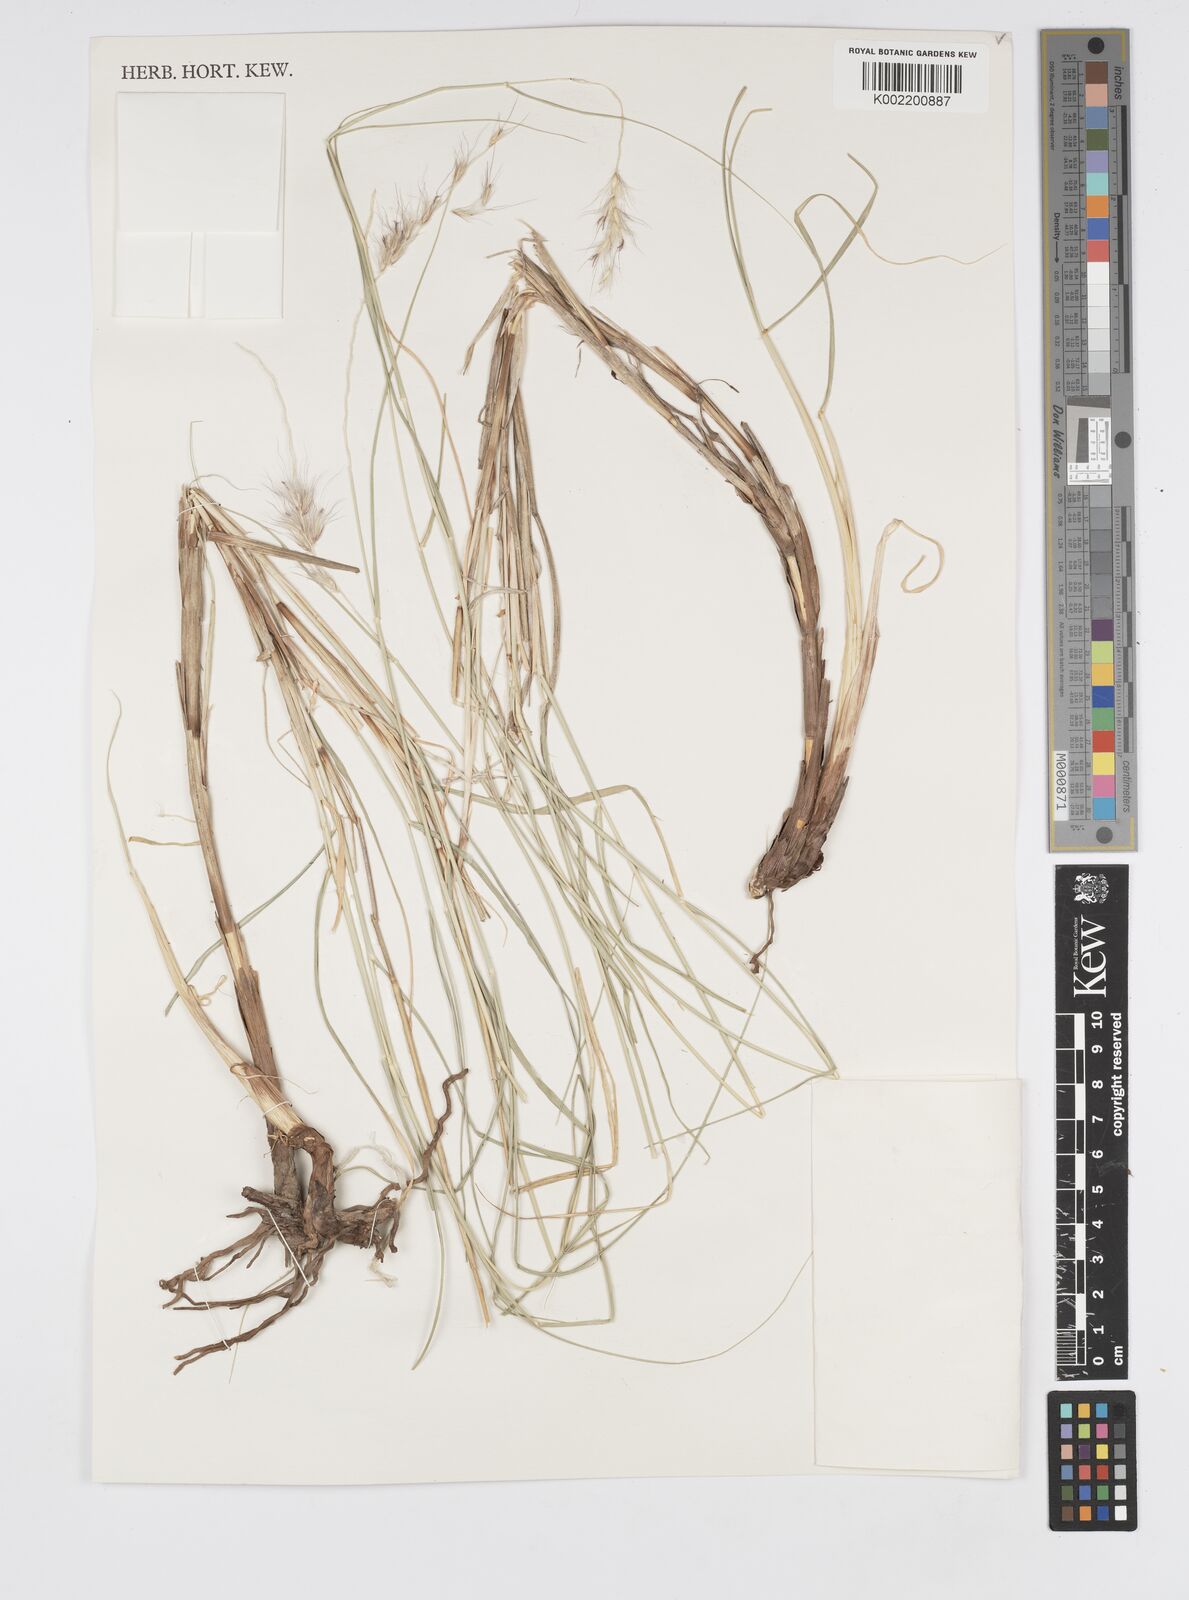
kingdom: Plantae
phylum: Tracheophyta
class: Liliopsida
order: Poales
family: Poaceae
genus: Cenchrus
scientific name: Cenchrus orientalis
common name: Oriental fountain grass
